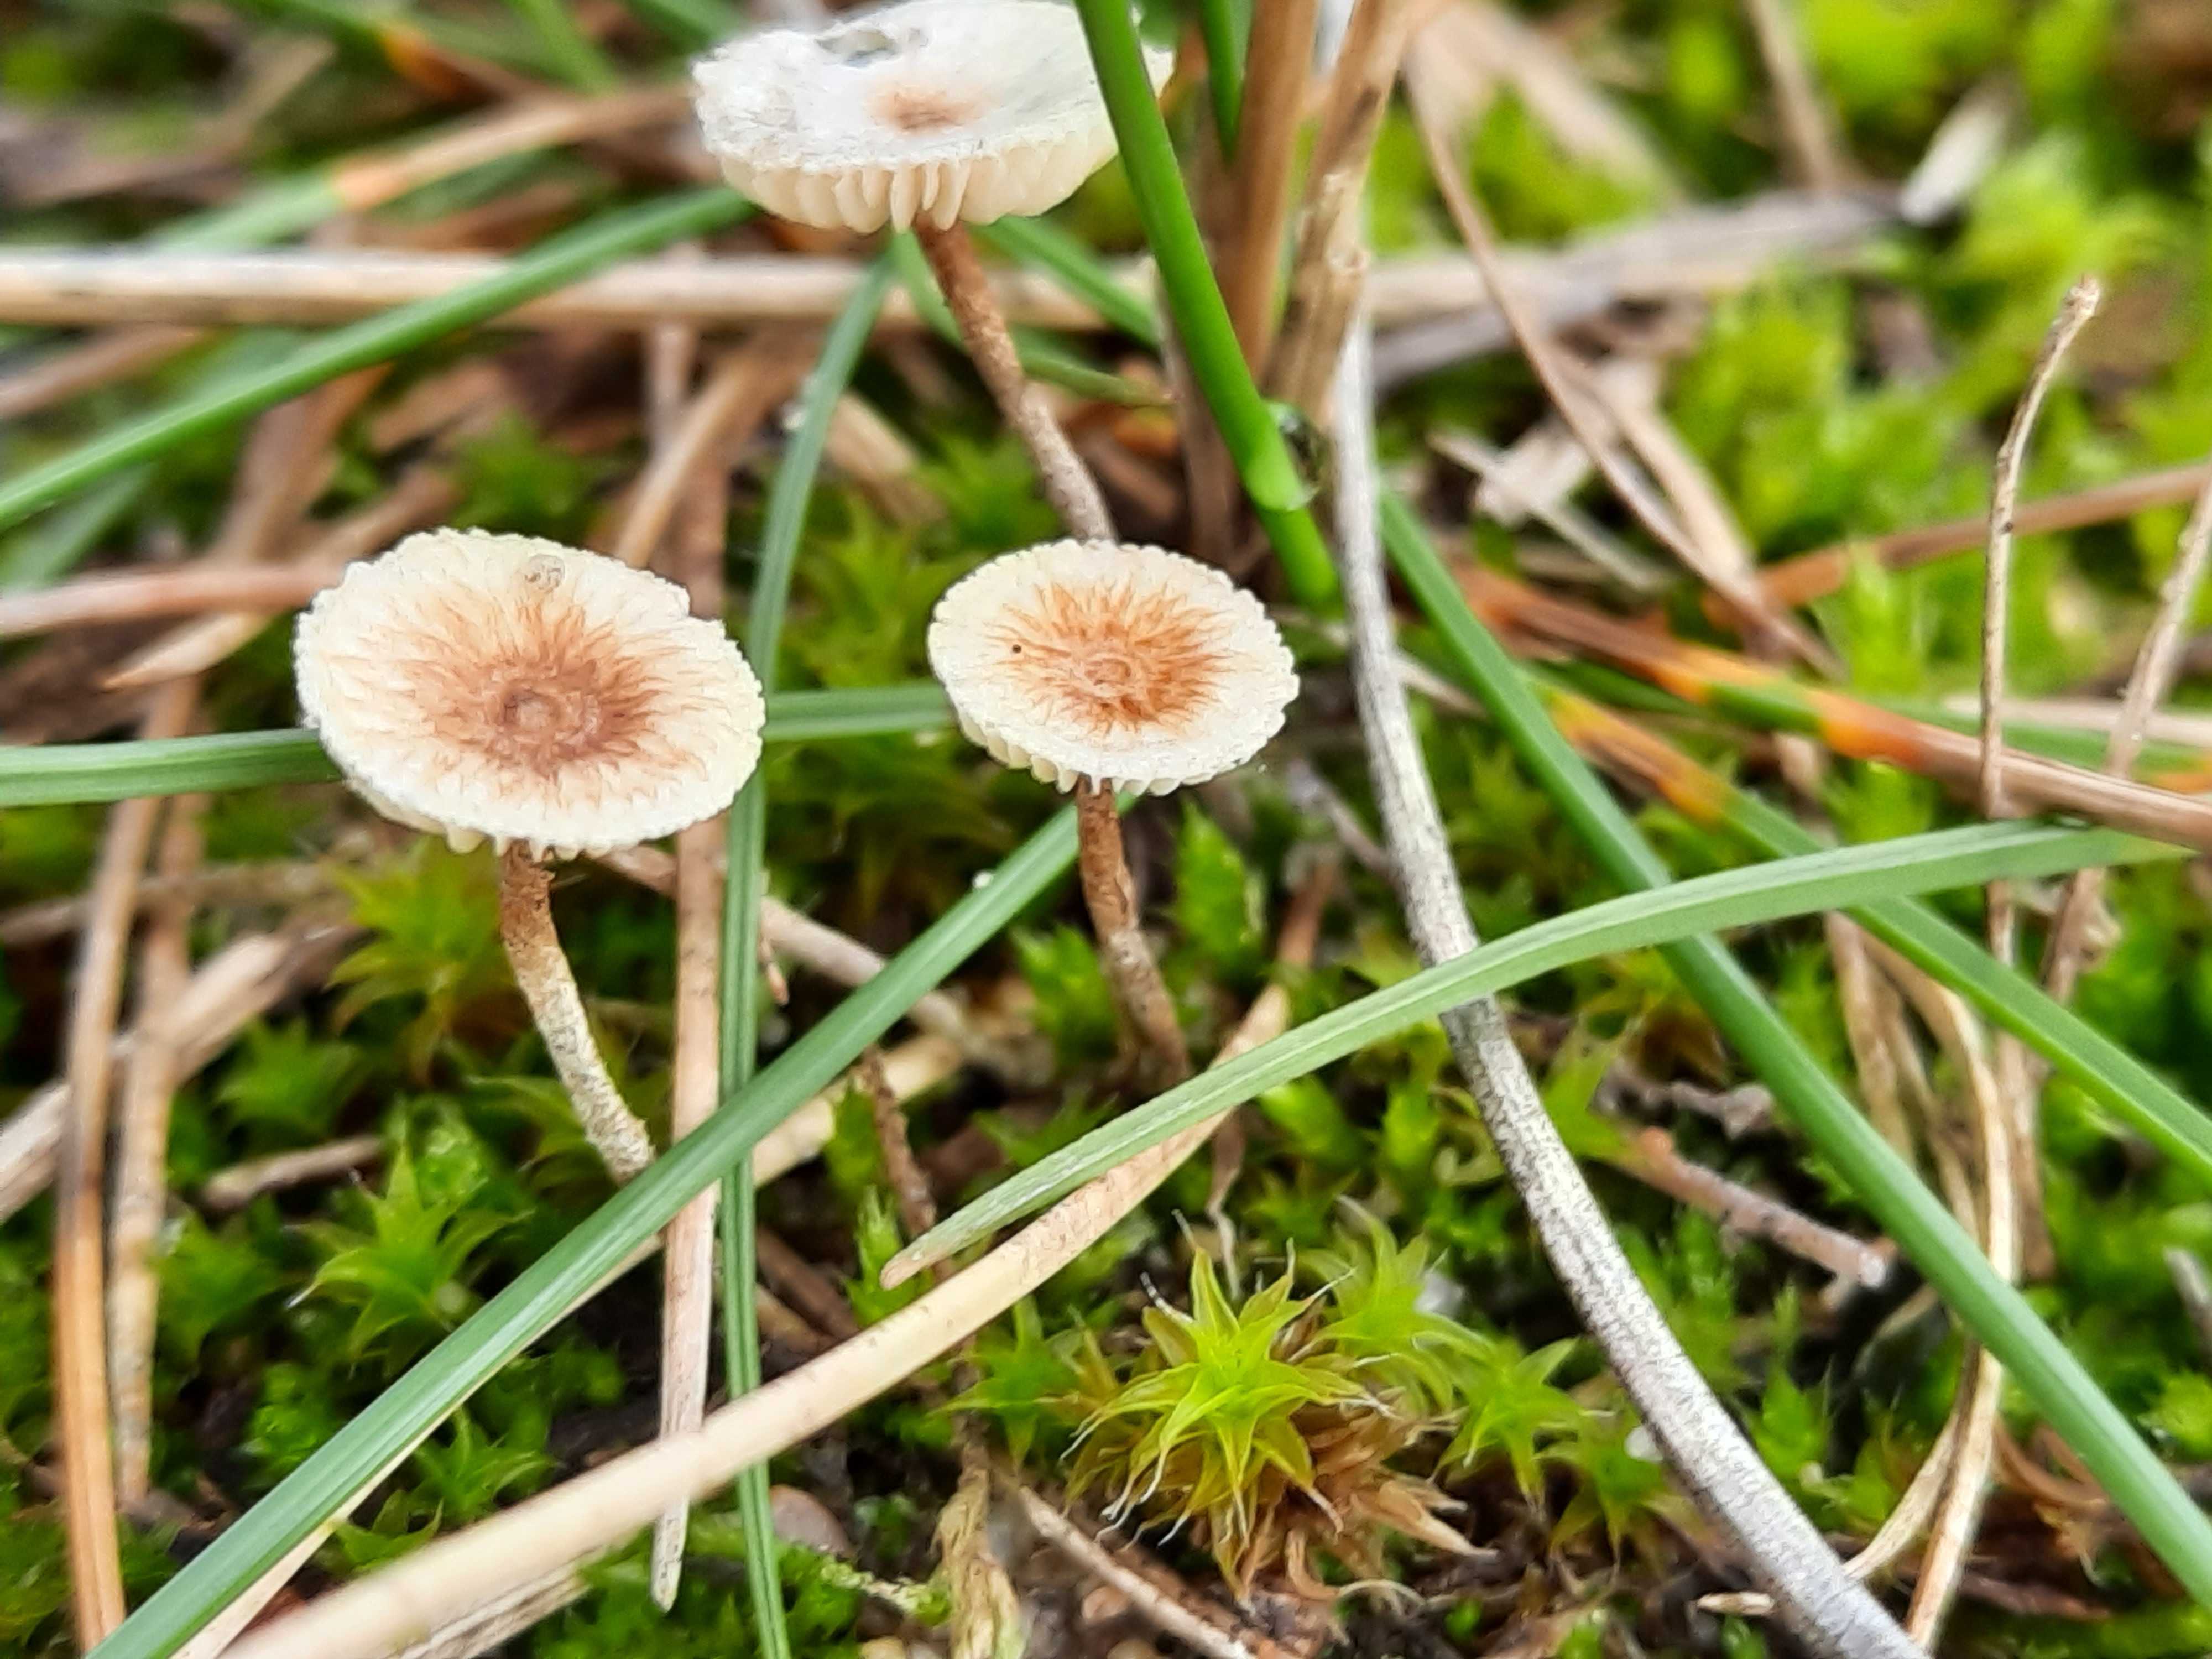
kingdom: Fungi
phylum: Basidiomycota
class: Agaricomycetes
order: Agaricales
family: Marasmiaceae
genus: Crinipellis
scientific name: Crinipellis scabella
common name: børstefod
